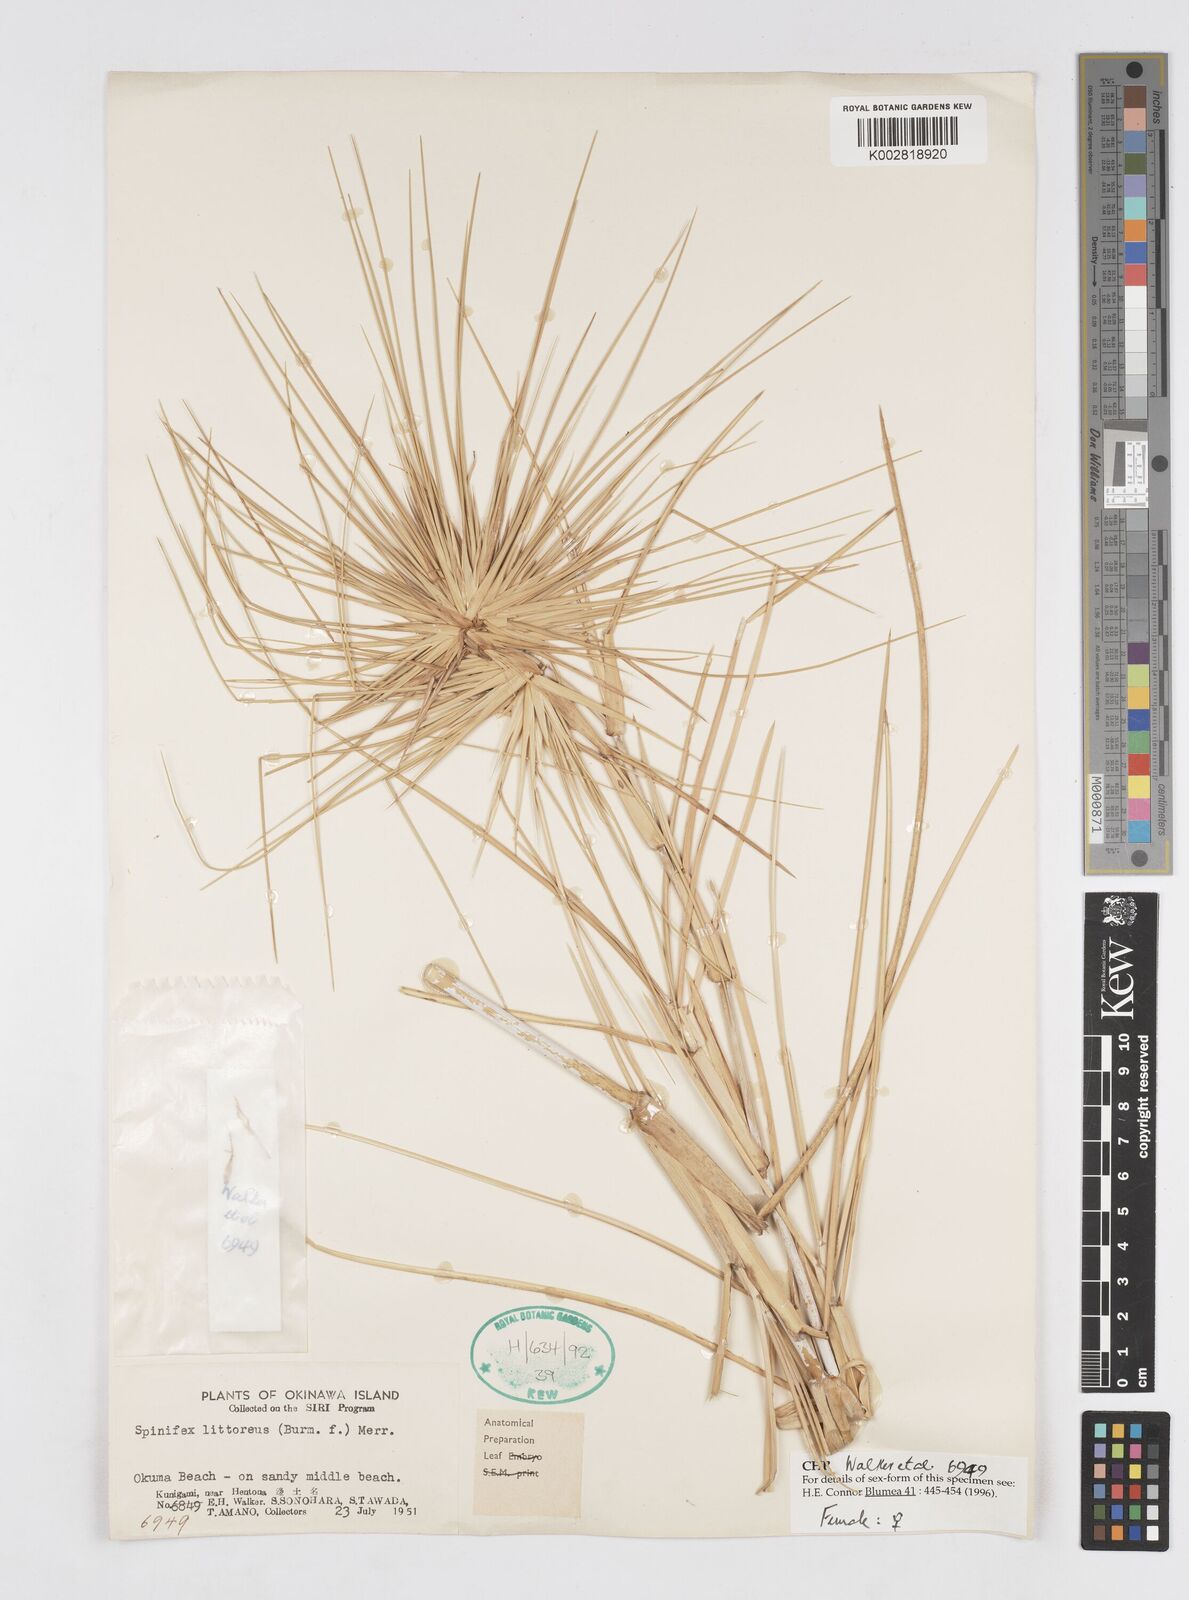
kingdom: Plantae
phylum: Tracheophyta
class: Liliopsida
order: Poales
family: Poaceae
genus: Spinifex
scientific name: Spinifex littoreus
